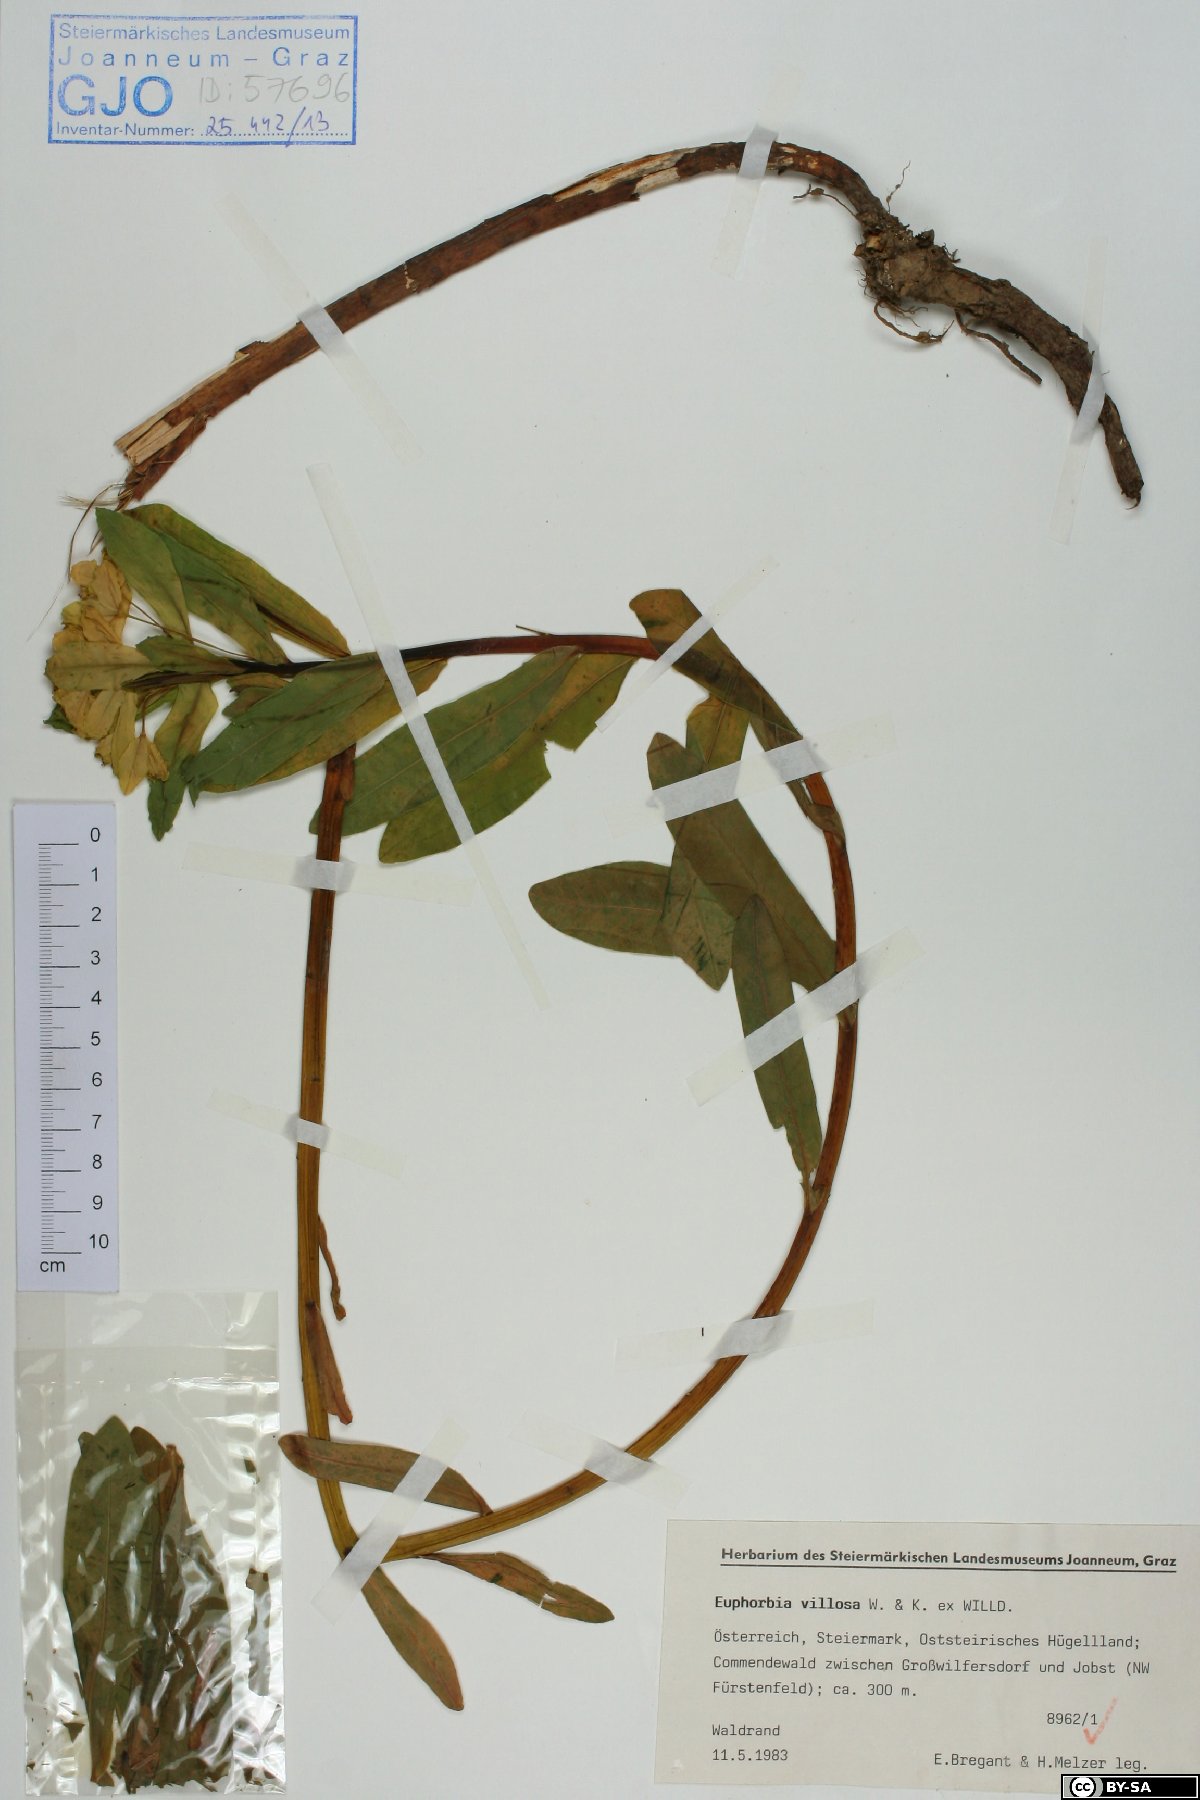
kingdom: Plantae
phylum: Tracheophyta
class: Magnoliopsida
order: Malpighiales
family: Euphorbiaceae
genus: Euphorbia
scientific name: Euphorbia illirica
